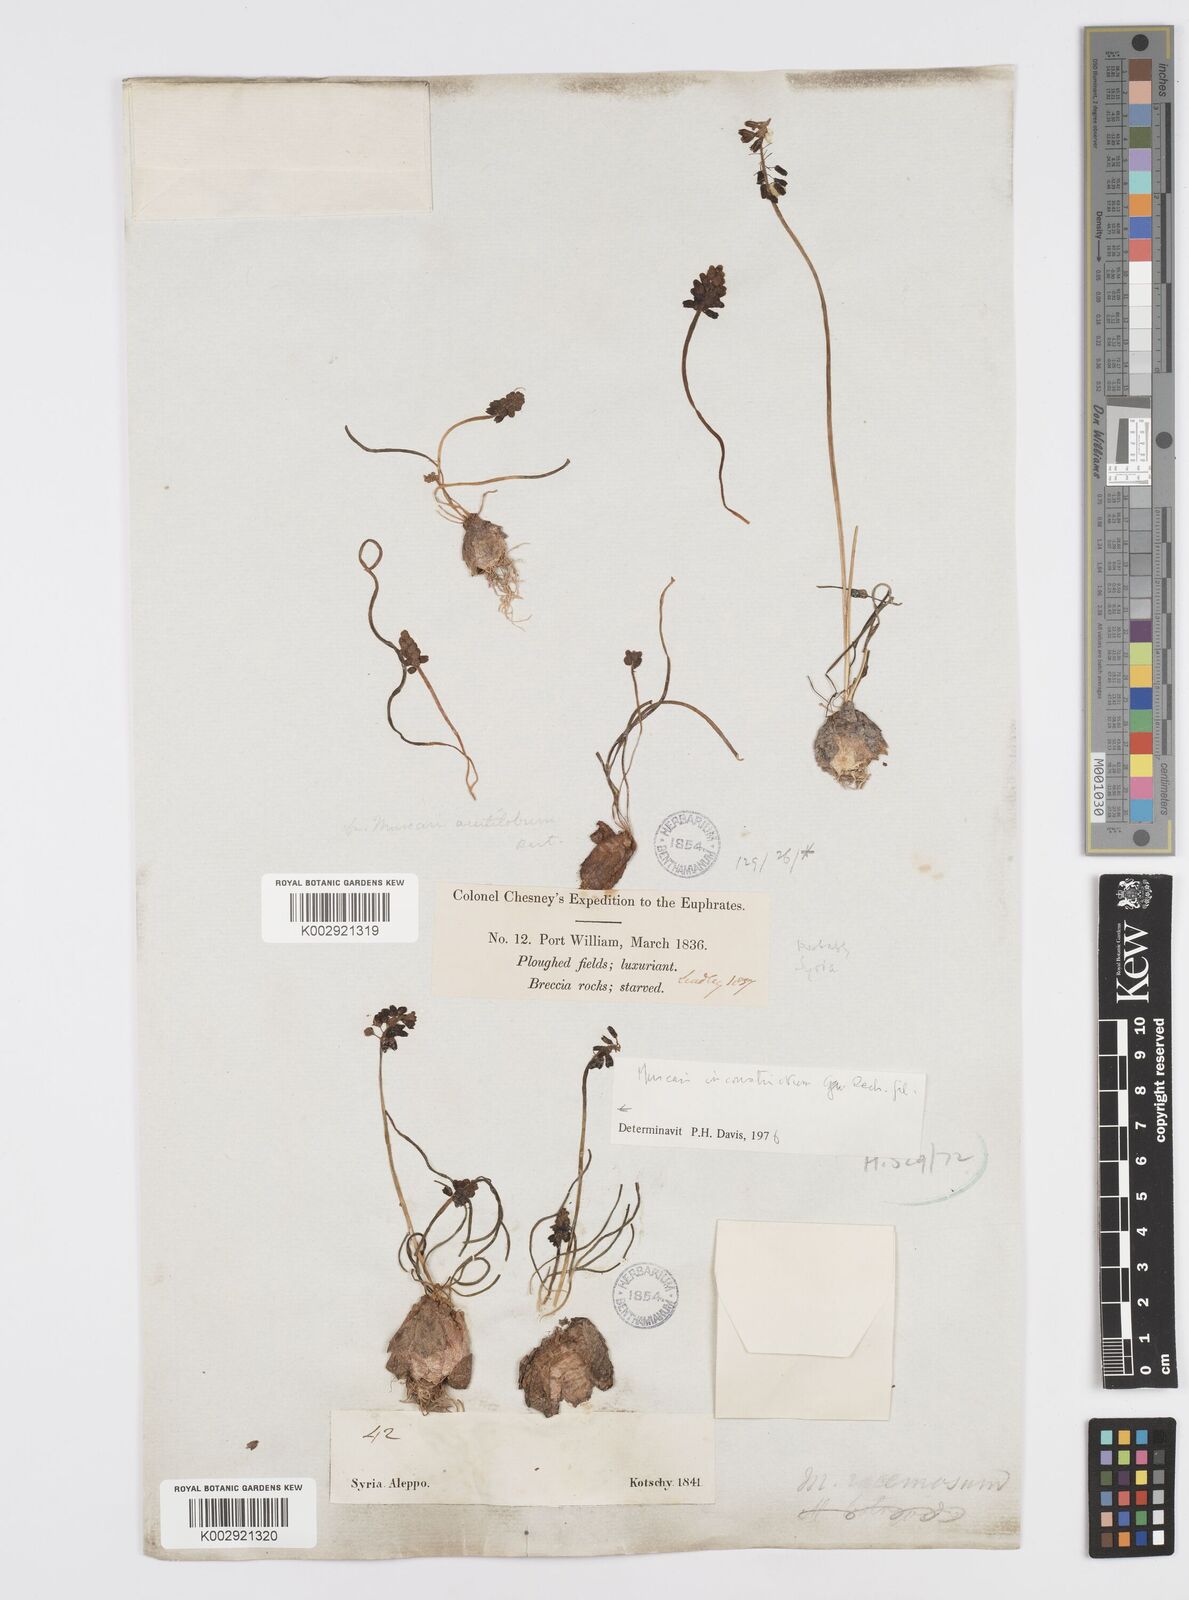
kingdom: Plantae
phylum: Tracheophyta
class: Liliopsida
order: Asparagales
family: Asparagaceae
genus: Muscari
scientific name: Muscari inconstrictum
